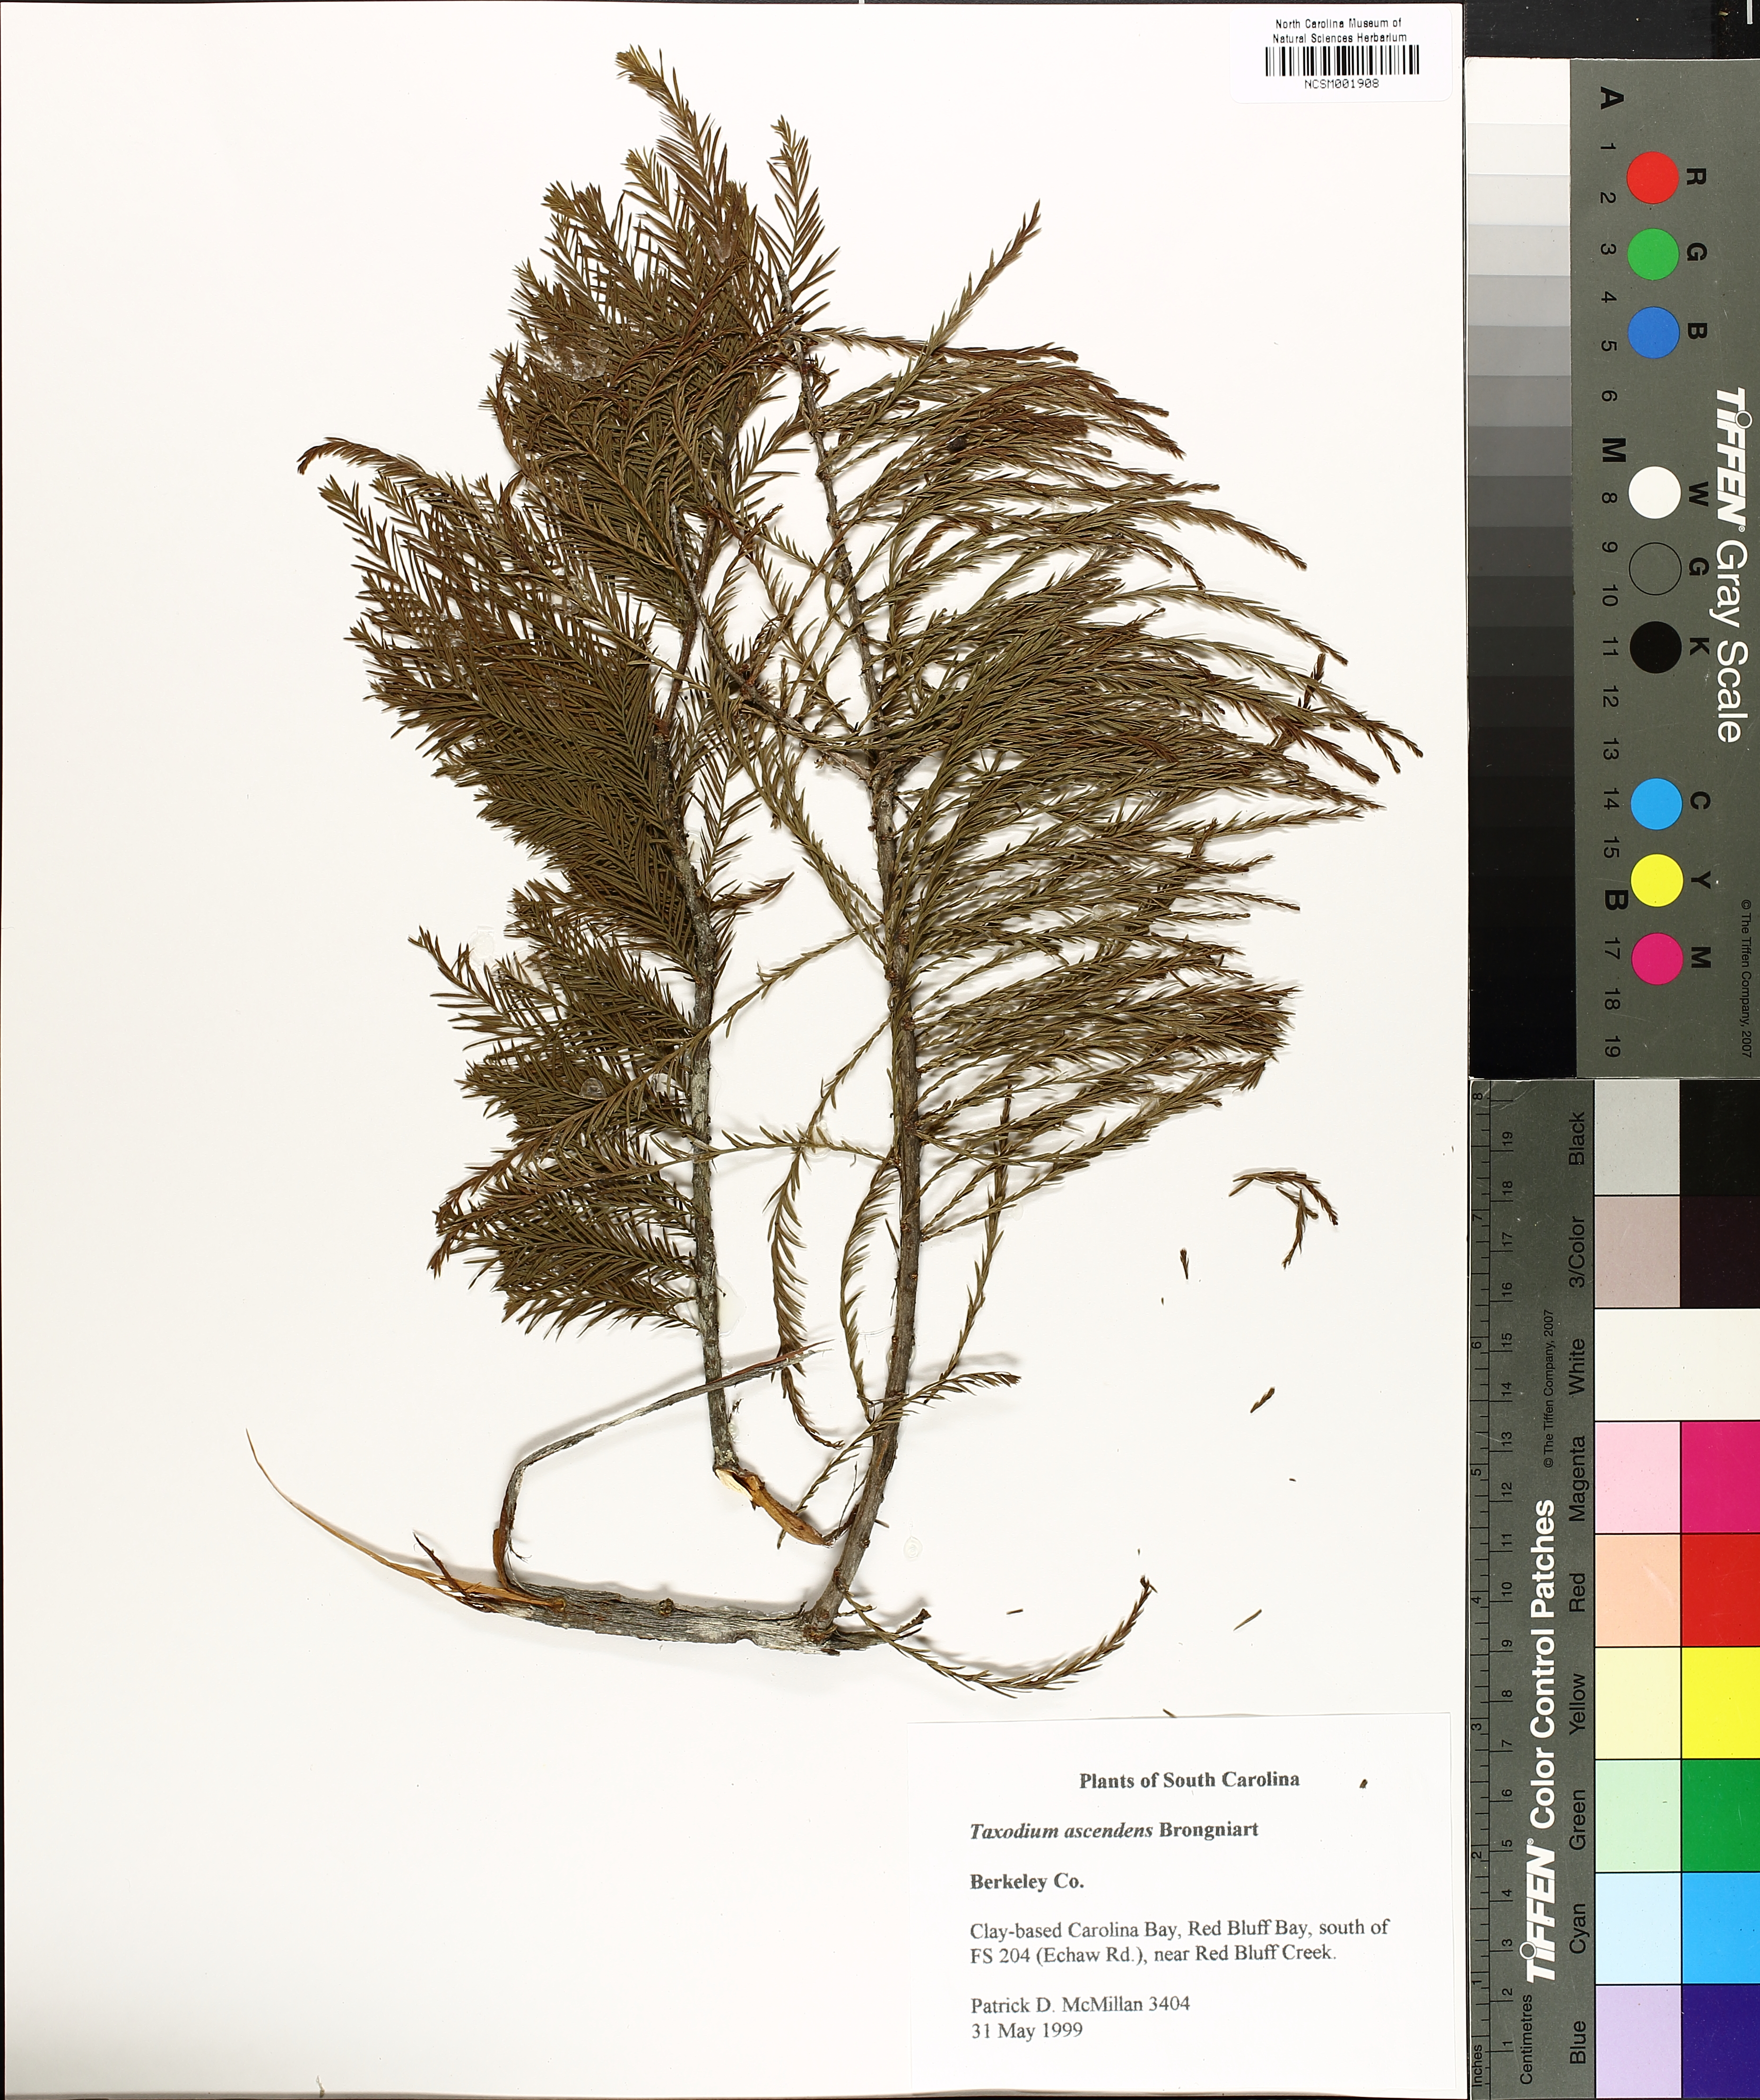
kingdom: Plantae
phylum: Tracheophyta
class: Pinopsida
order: Pinales
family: Cupressaceae
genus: Taxodium
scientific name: Taxodium distichum
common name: Bald cypress
